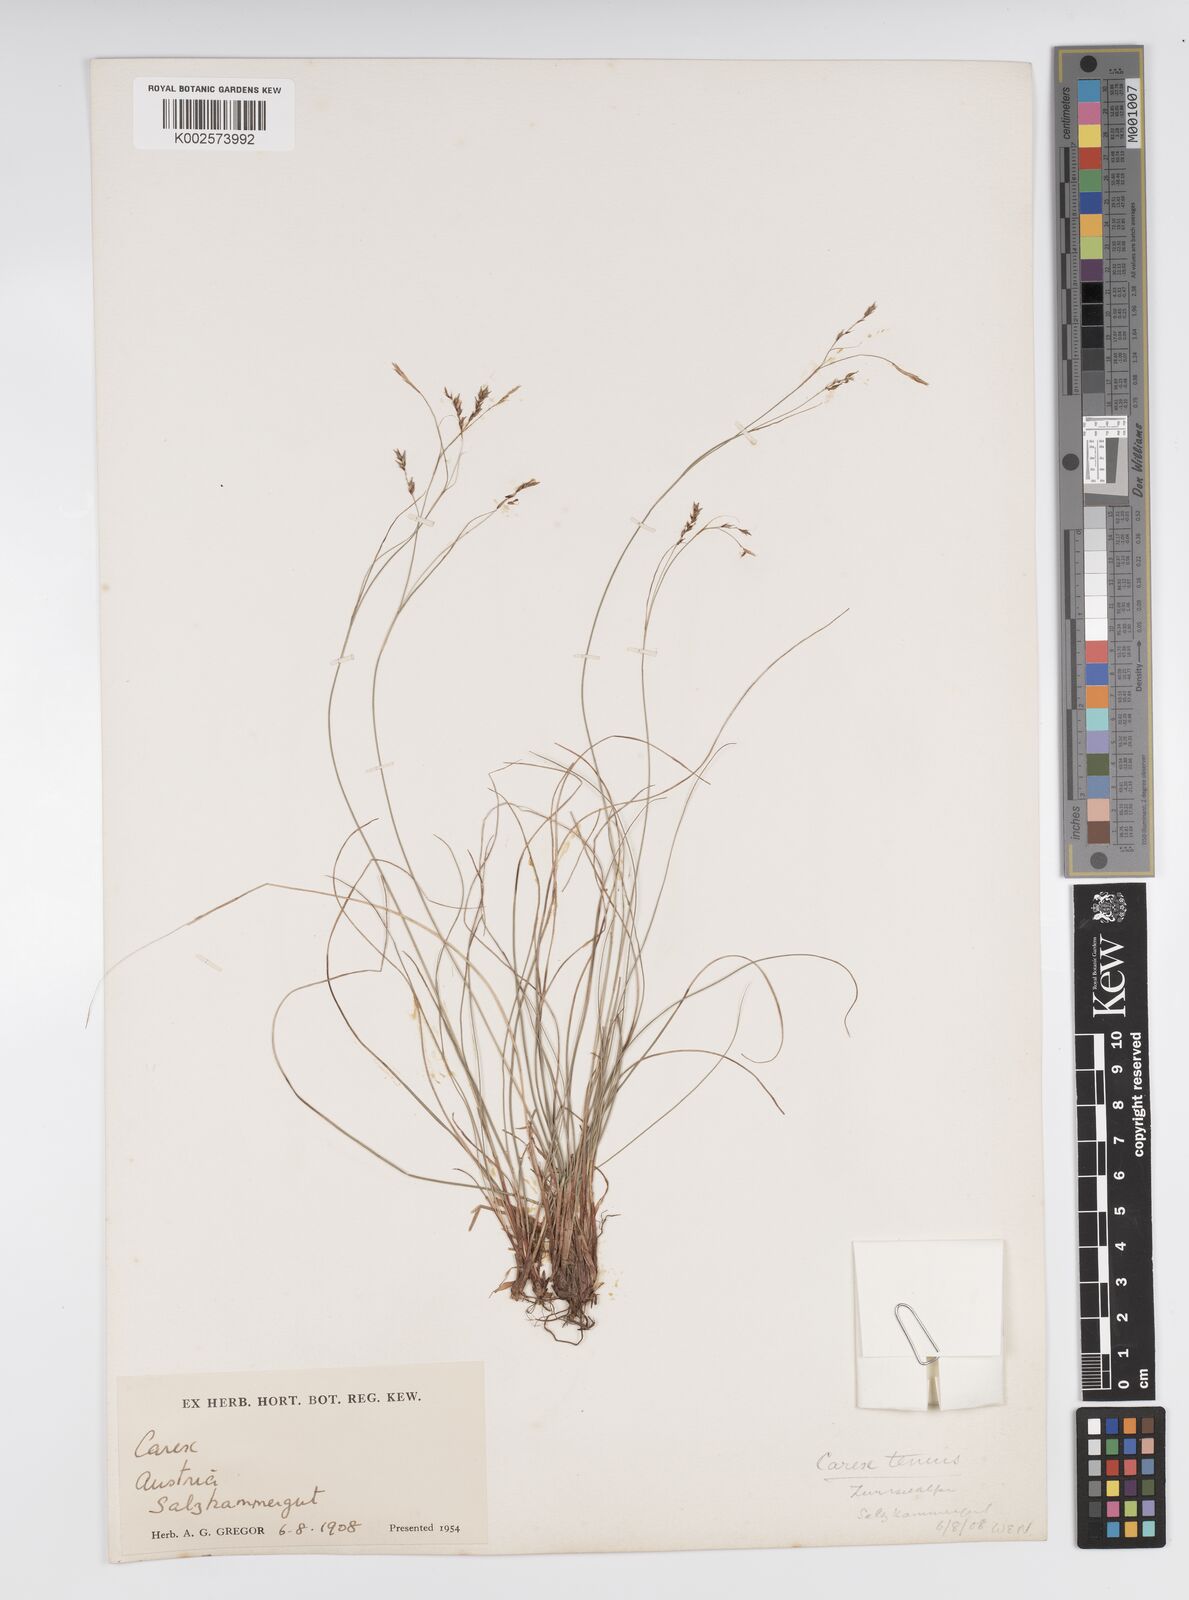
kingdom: Plantae
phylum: Tracheophyta
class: Liliopsida
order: Poales
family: Cyperaceae
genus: Carex
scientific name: Carex brachystachys
